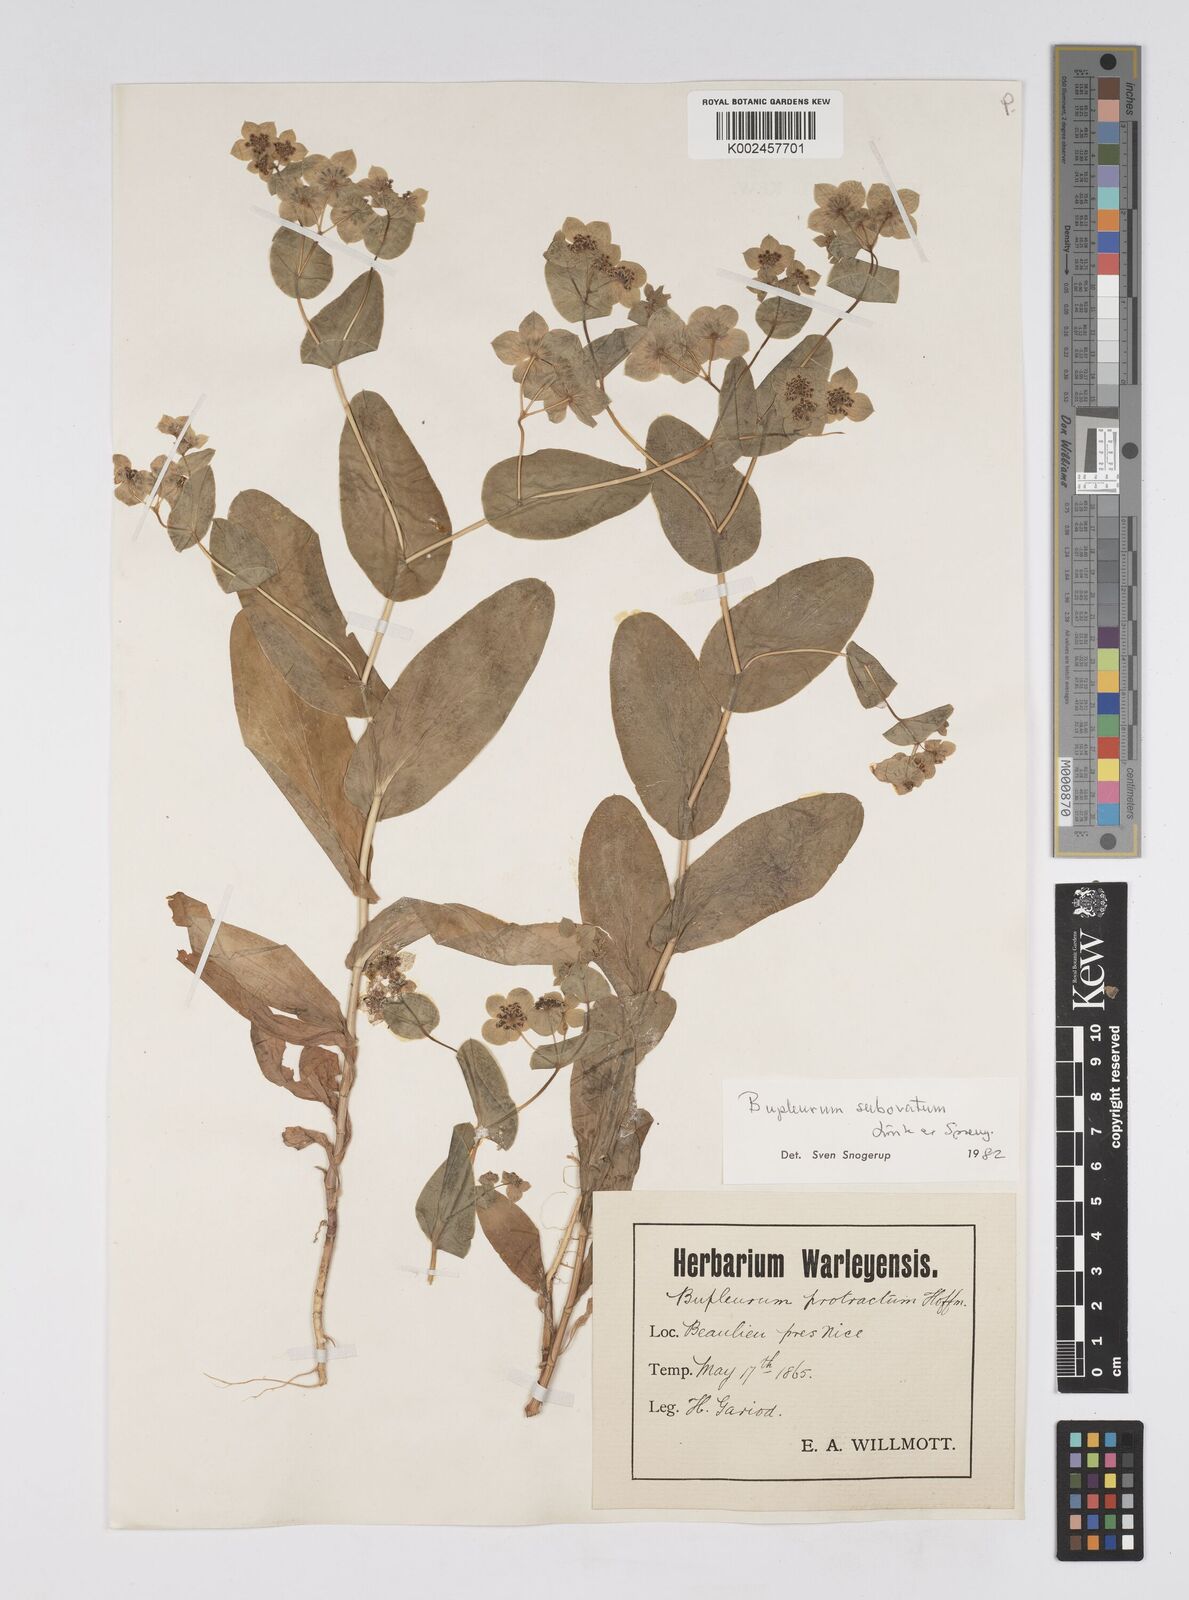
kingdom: Plantae
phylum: Tracheophyta
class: Magnoliopsida
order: Apiales
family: Apiaceae
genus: Bupleurum
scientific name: Bupleurum lancifolium
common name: False thorow-wax
